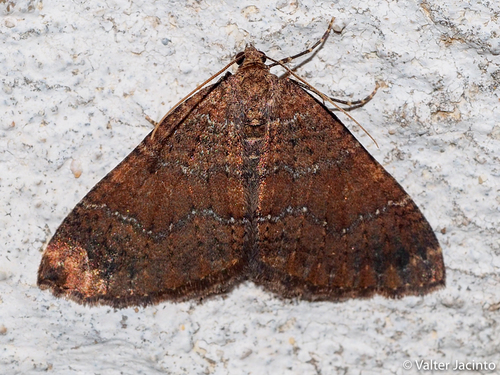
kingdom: Animalia
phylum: Arthropoda
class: Insecta
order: Lepidoptera
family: Geometridae
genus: Nebula
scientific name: Nebula malvata
